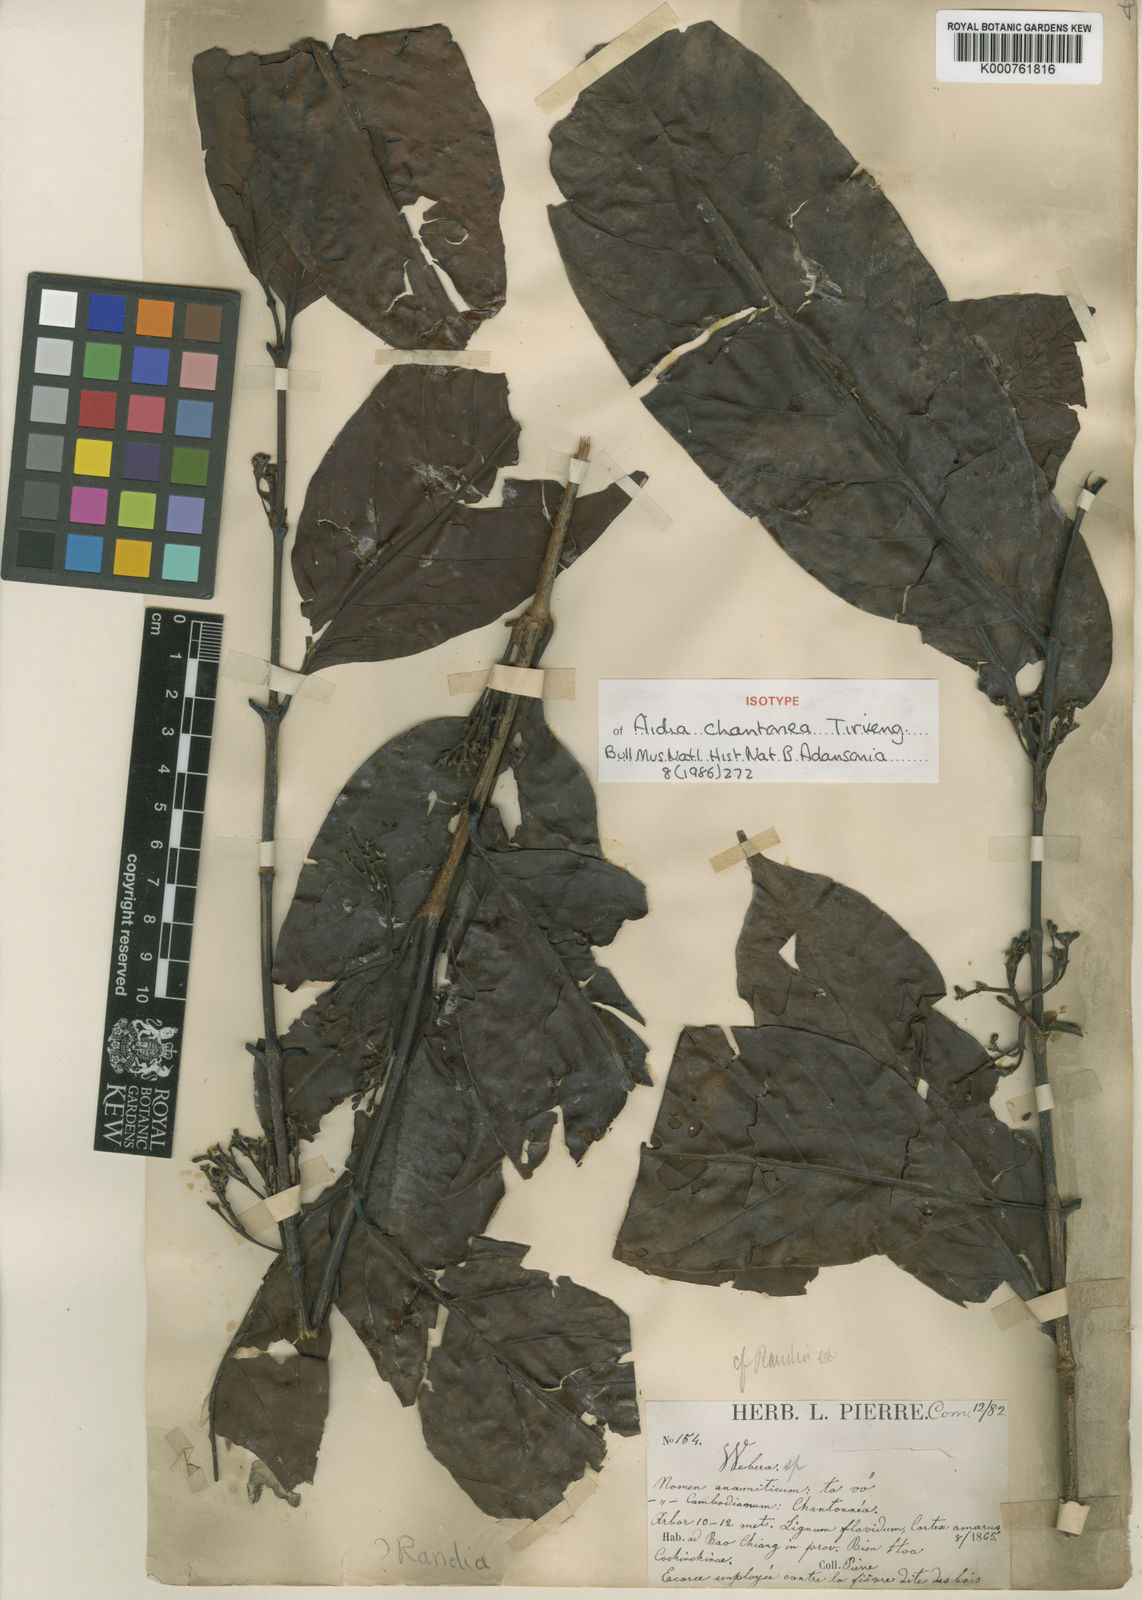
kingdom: Plantae
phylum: Tracheophyta
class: Magnoliopsida
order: Gentianales
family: Rubiaceae
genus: Aidia
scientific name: Aidia chantonea
